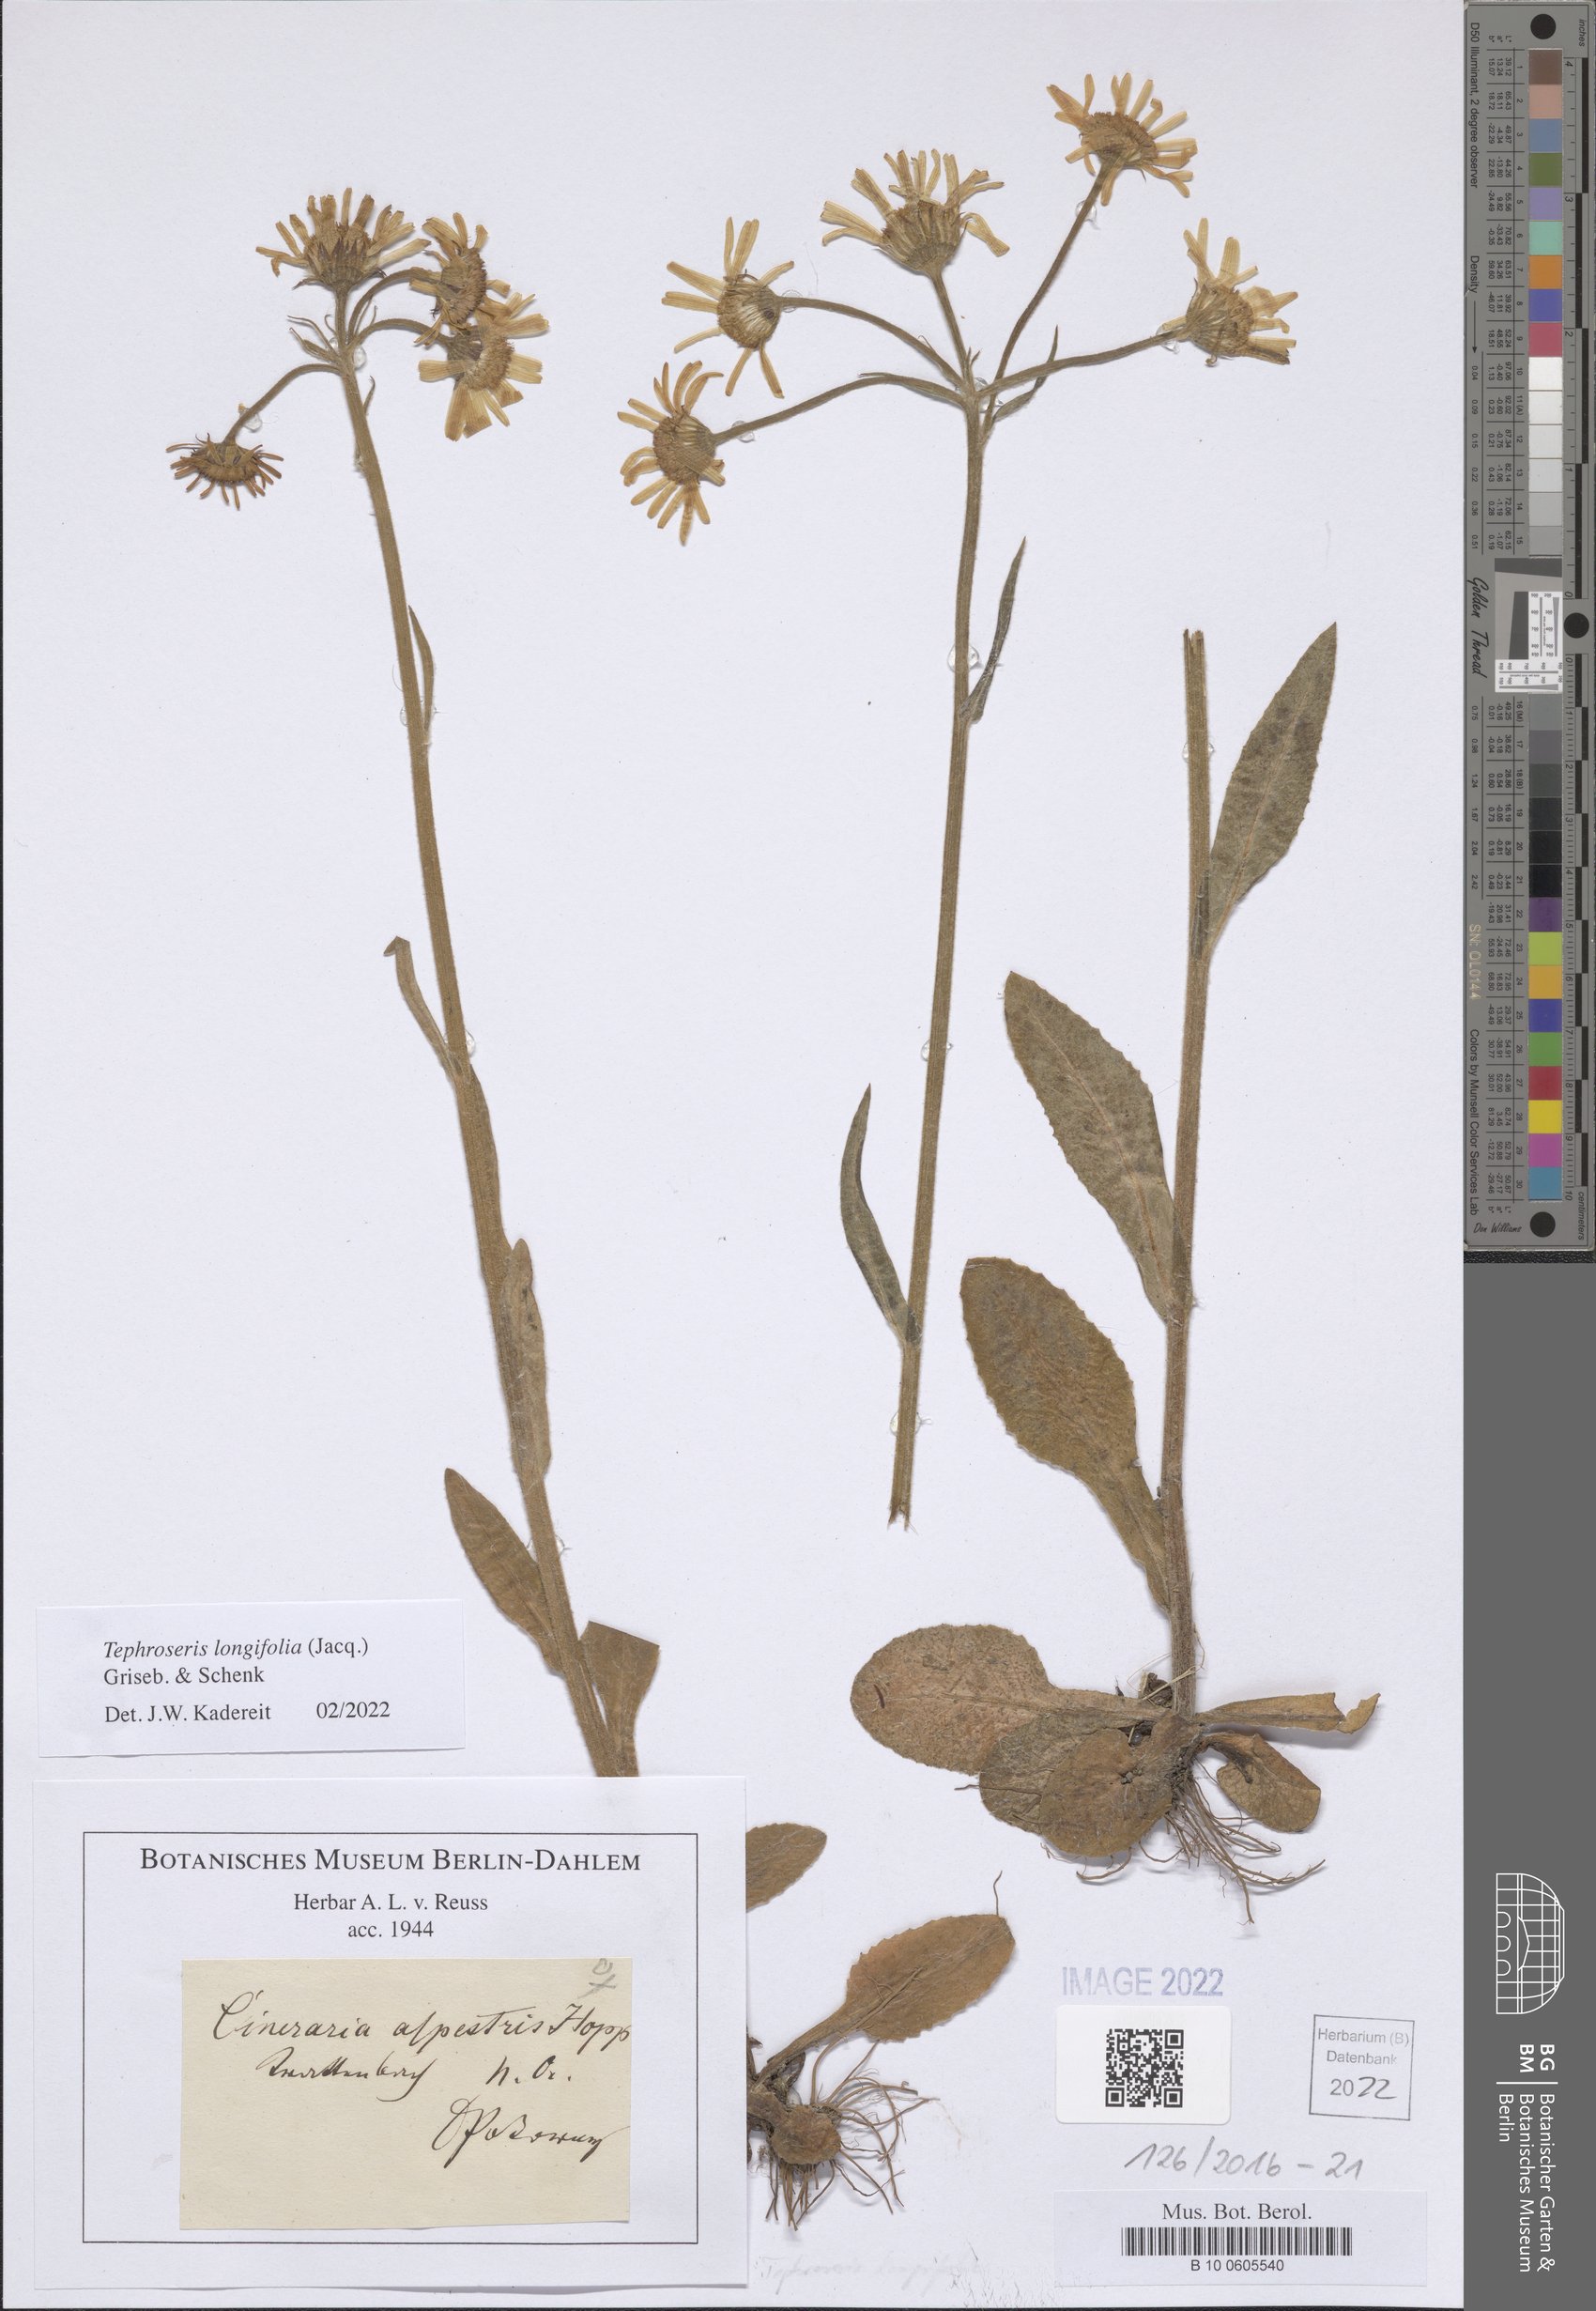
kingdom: Plantae
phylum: Tracheophyta
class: Magnoliopsida
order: Asterales
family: Asteraceae
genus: Tephroseris
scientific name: Tephroseris longifolia
